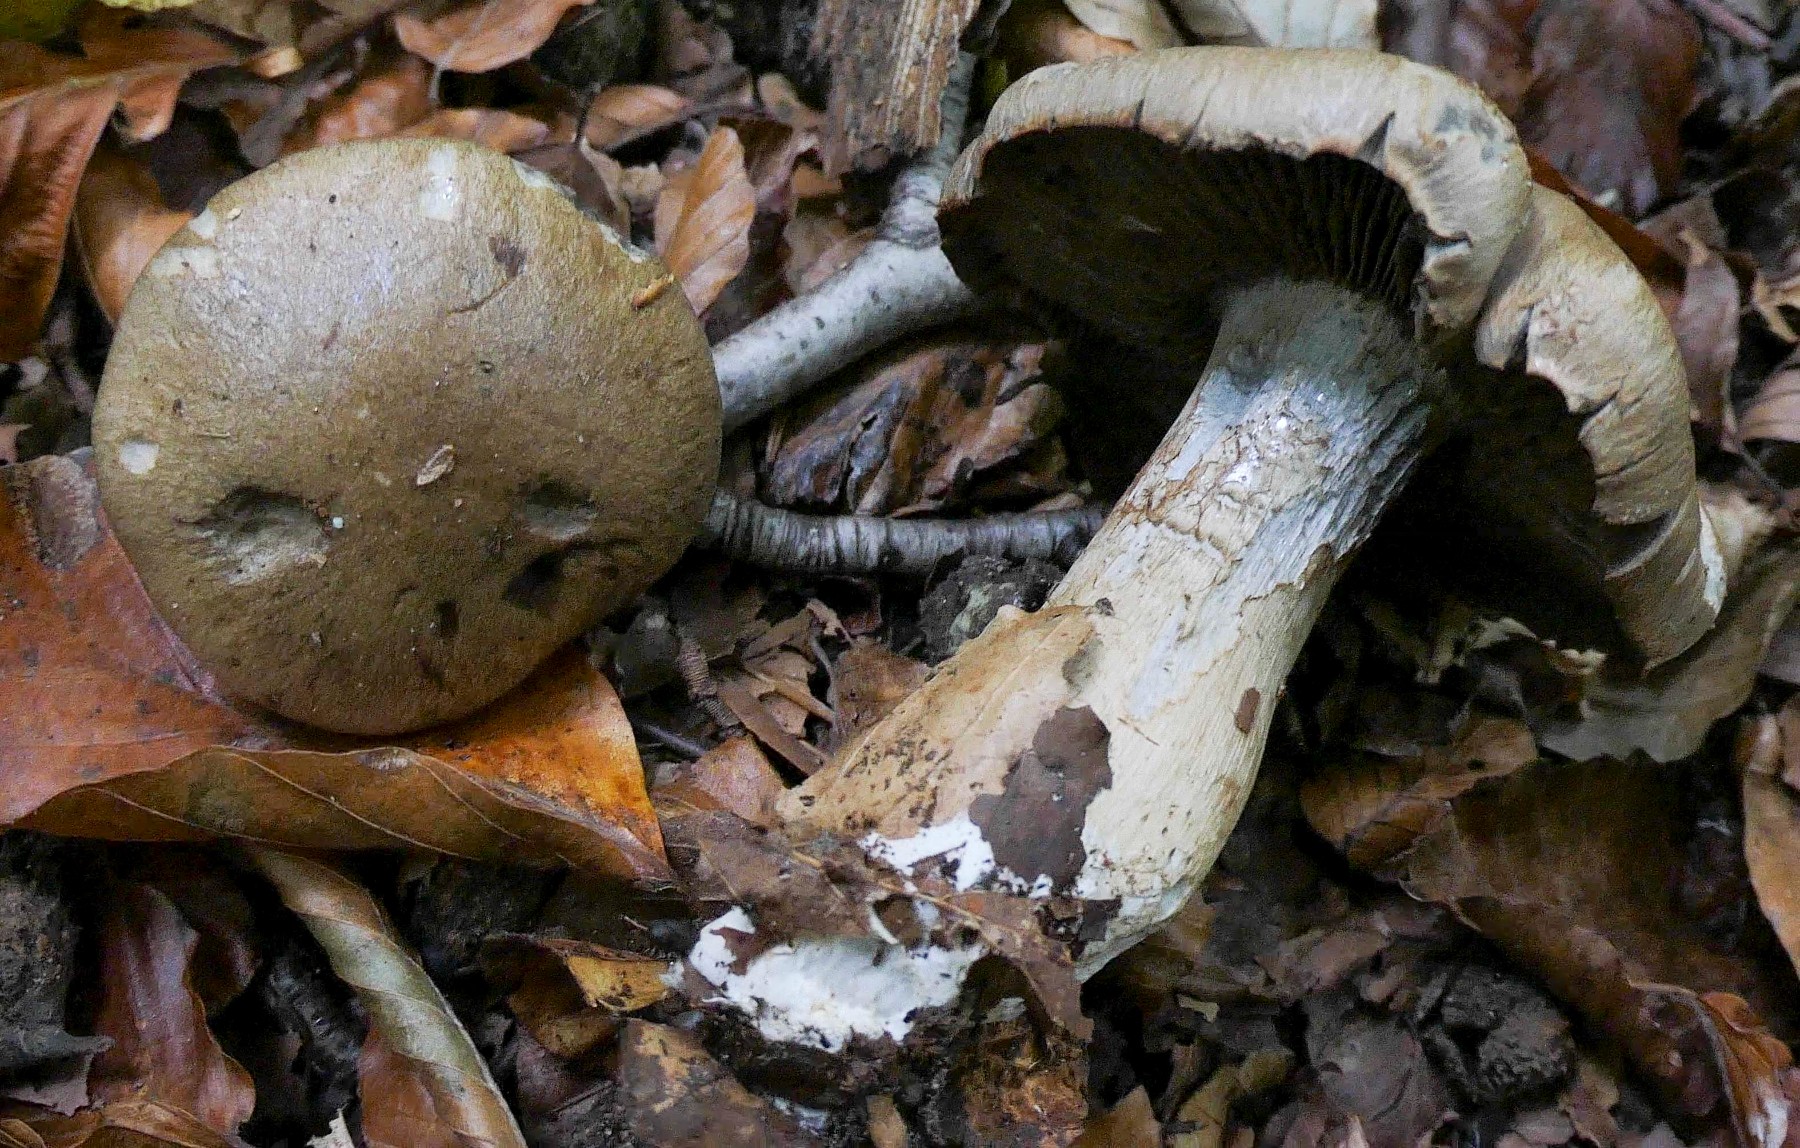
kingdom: Fungi
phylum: Basidiomycota
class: Agaricomycetes
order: Agaricales
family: Cortinariaceae
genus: Cortinarius
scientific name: Cortinarius
